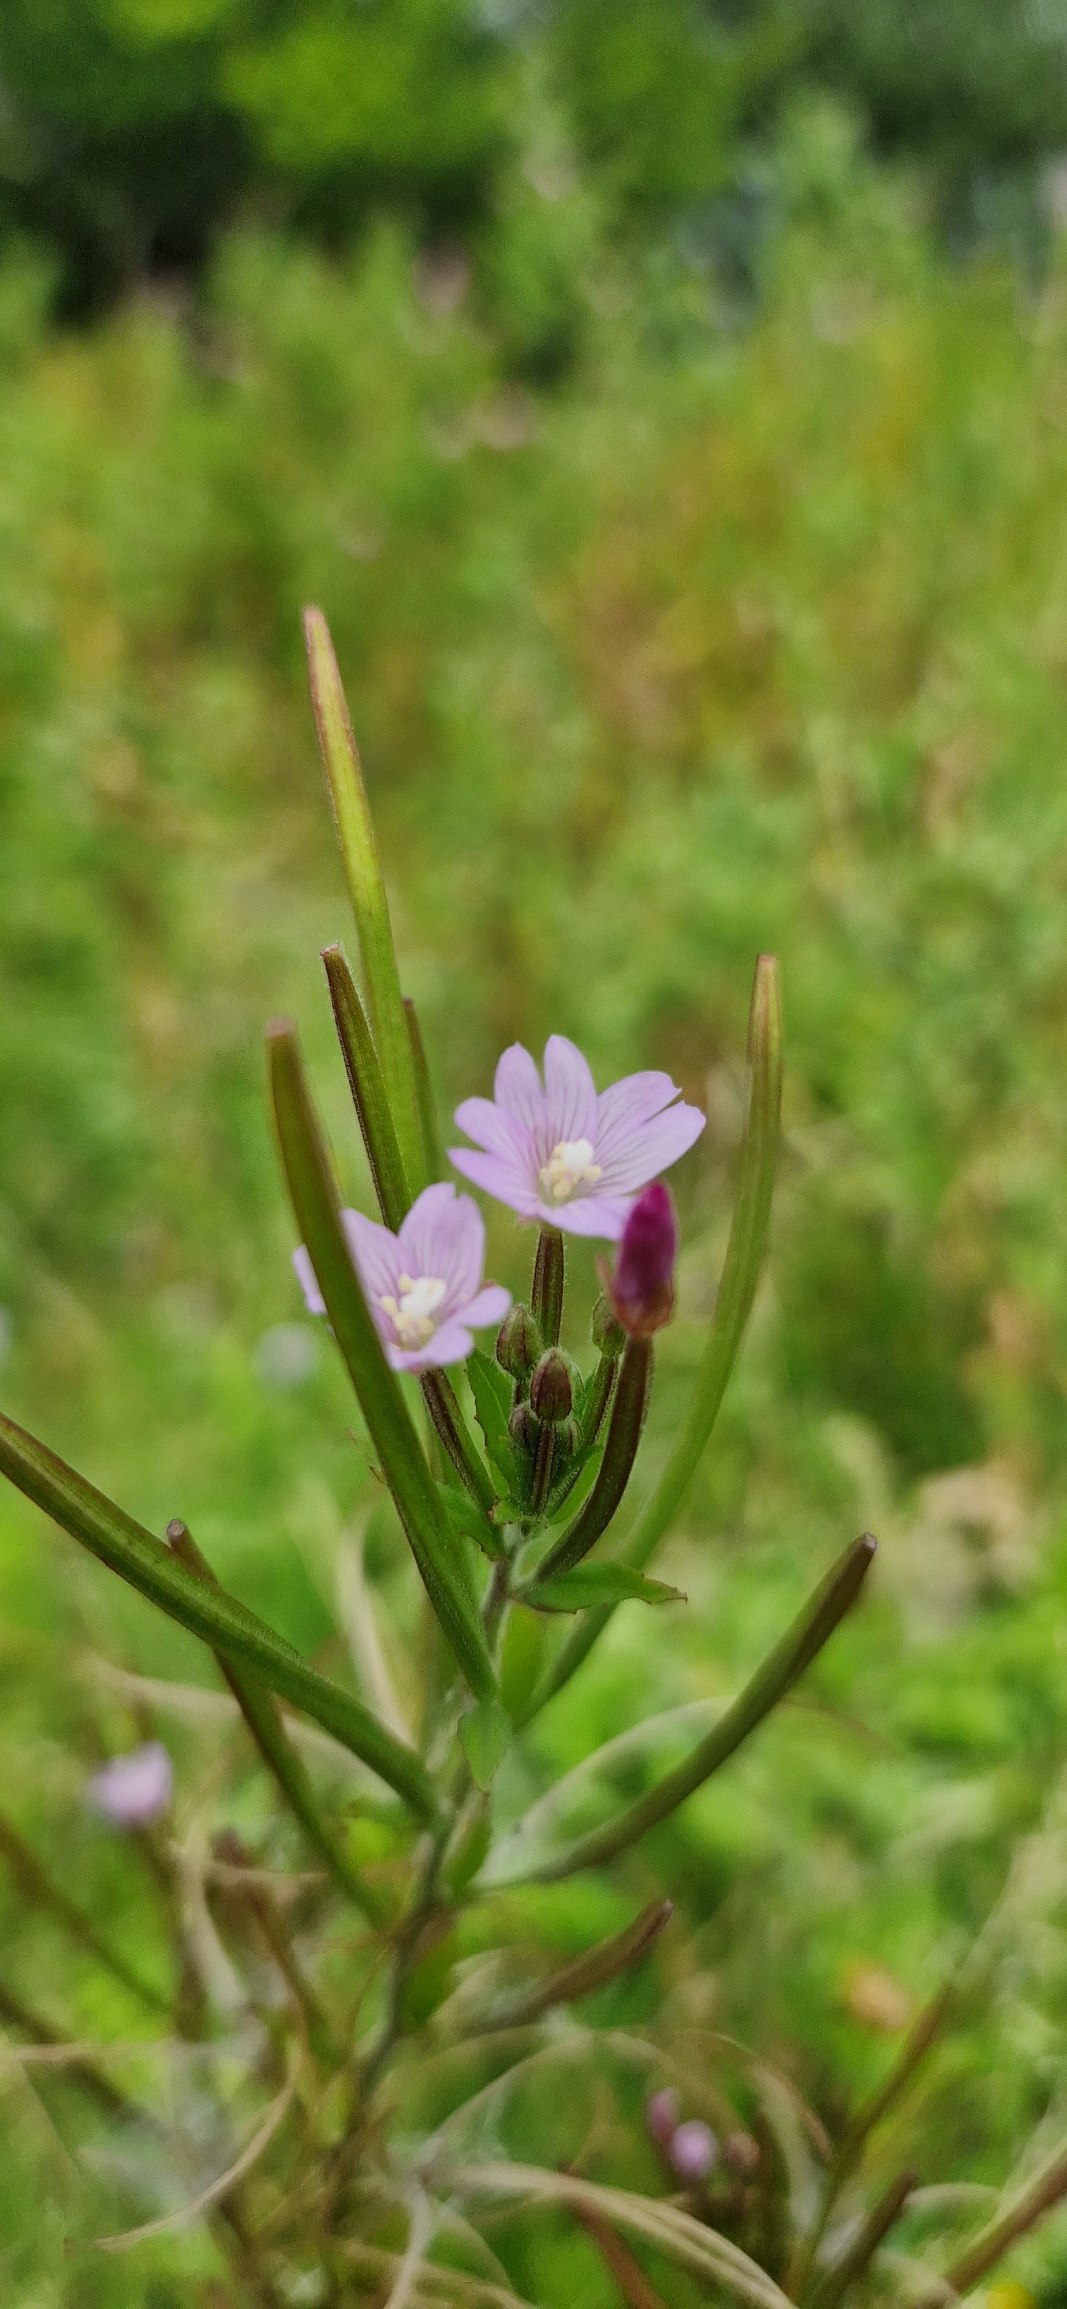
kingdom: Plantae
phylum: Tracheophyta
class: Magnoliopsida
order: Myrtales
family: Onagraceae
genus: Epilobium
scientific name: Epilobium parviflorum
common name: Dunet dueurt
